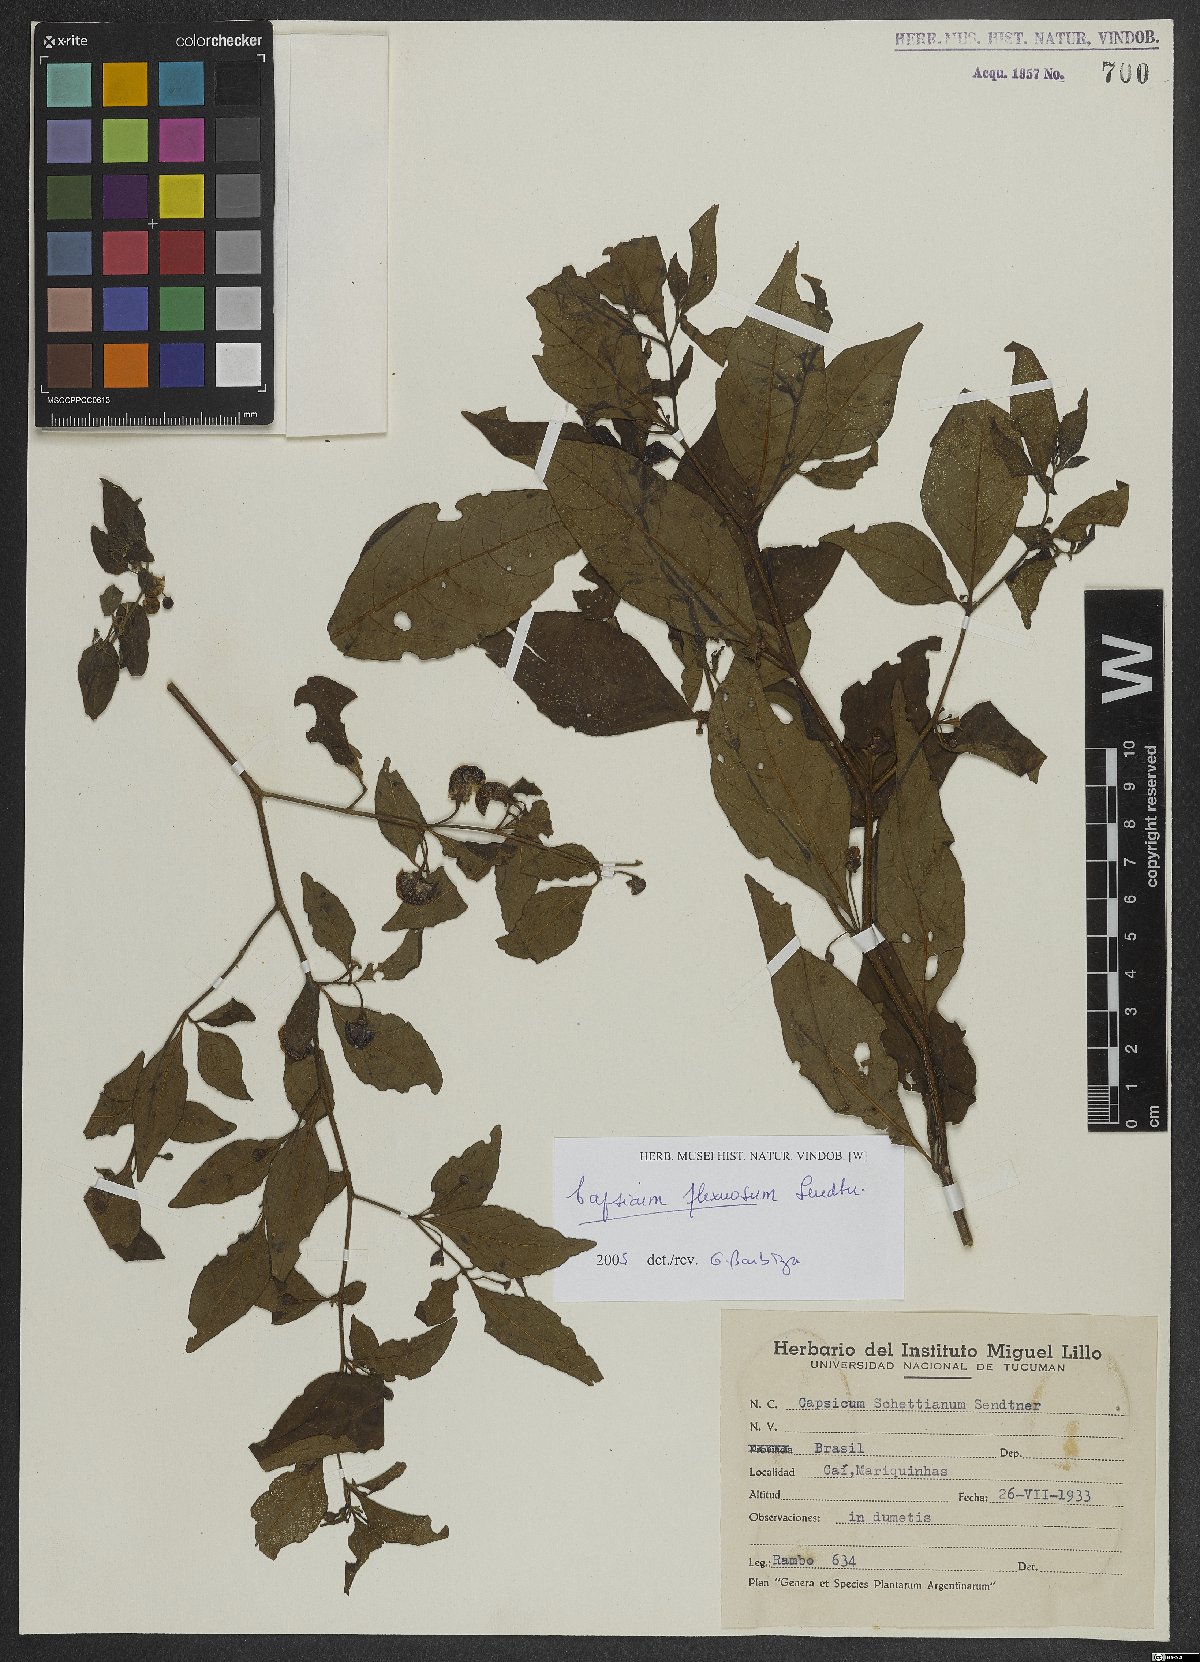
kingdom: Plantae
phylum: Tracheophyta
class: Magnoliopsida
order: Solanales
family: Solanaceae
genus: Capsicum
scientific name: Capsicum flexuosum
